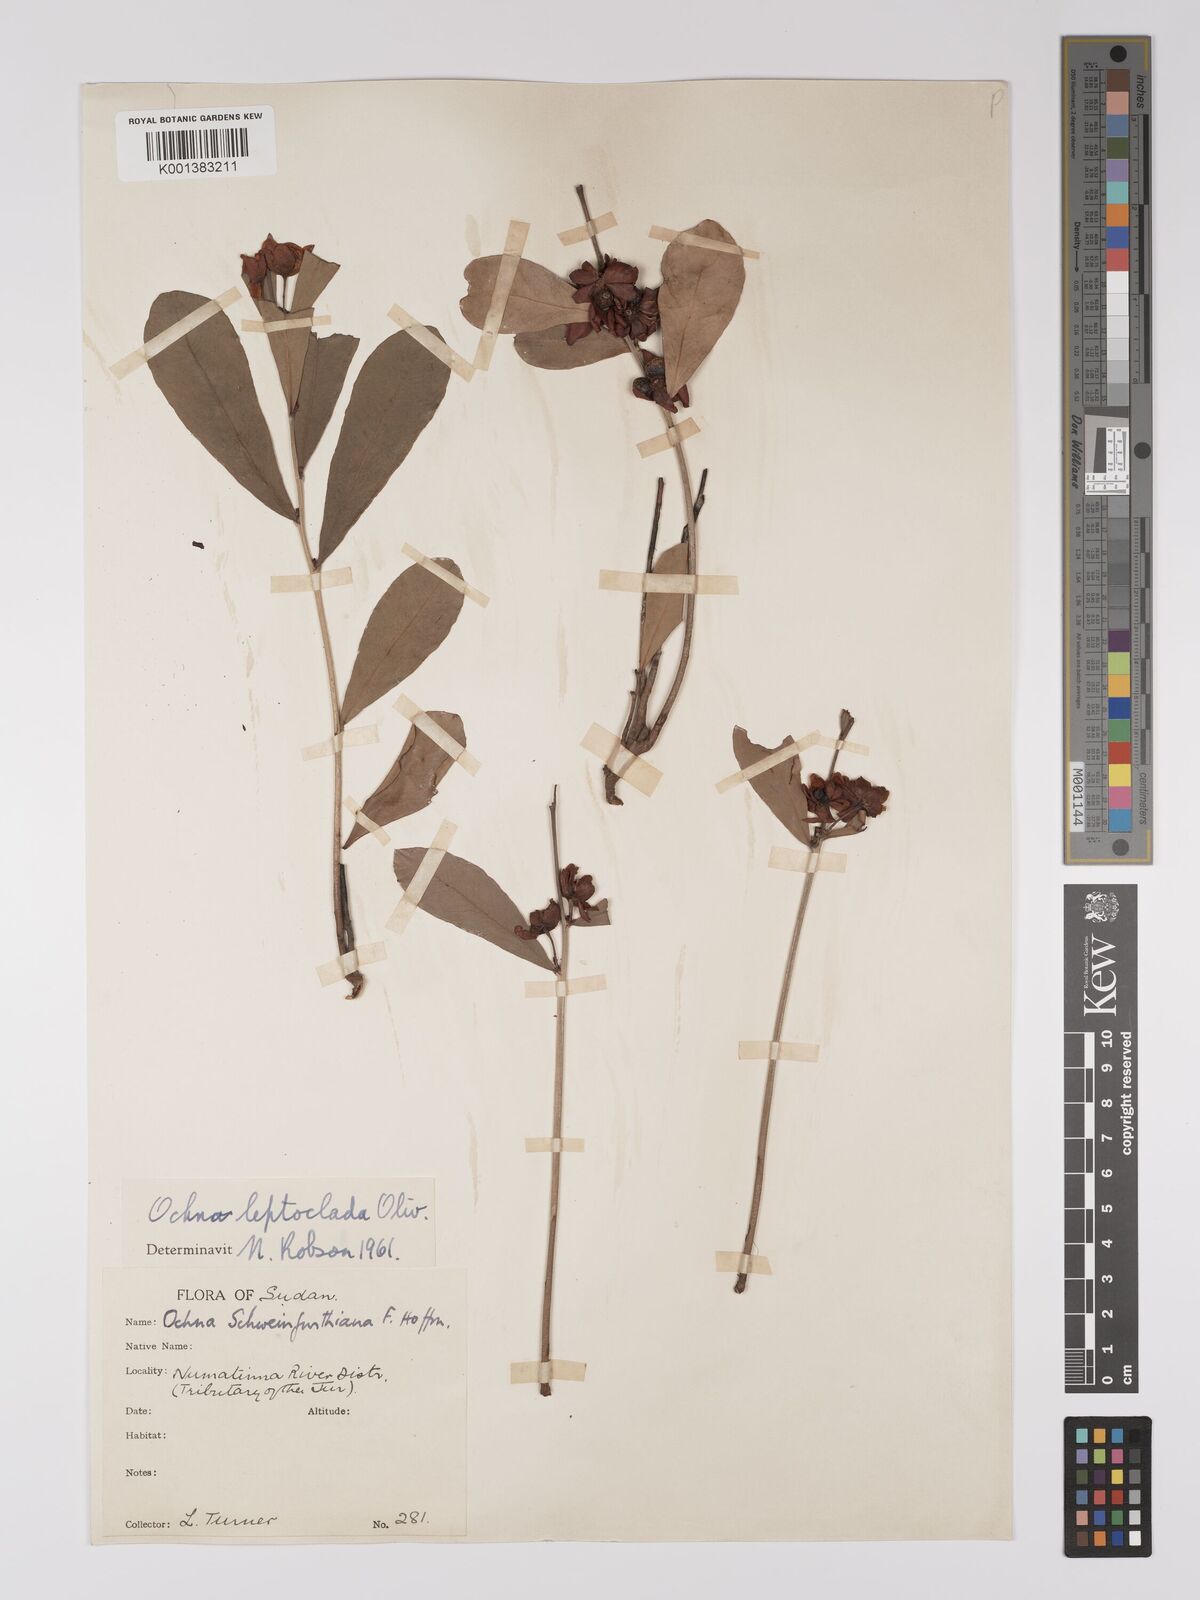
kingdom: Plantae
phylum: Tracheophyta
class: Magnoliopsida
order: Malpighiales
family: Ochnaceae
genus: Ochna
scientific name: Ochna leptoclada
